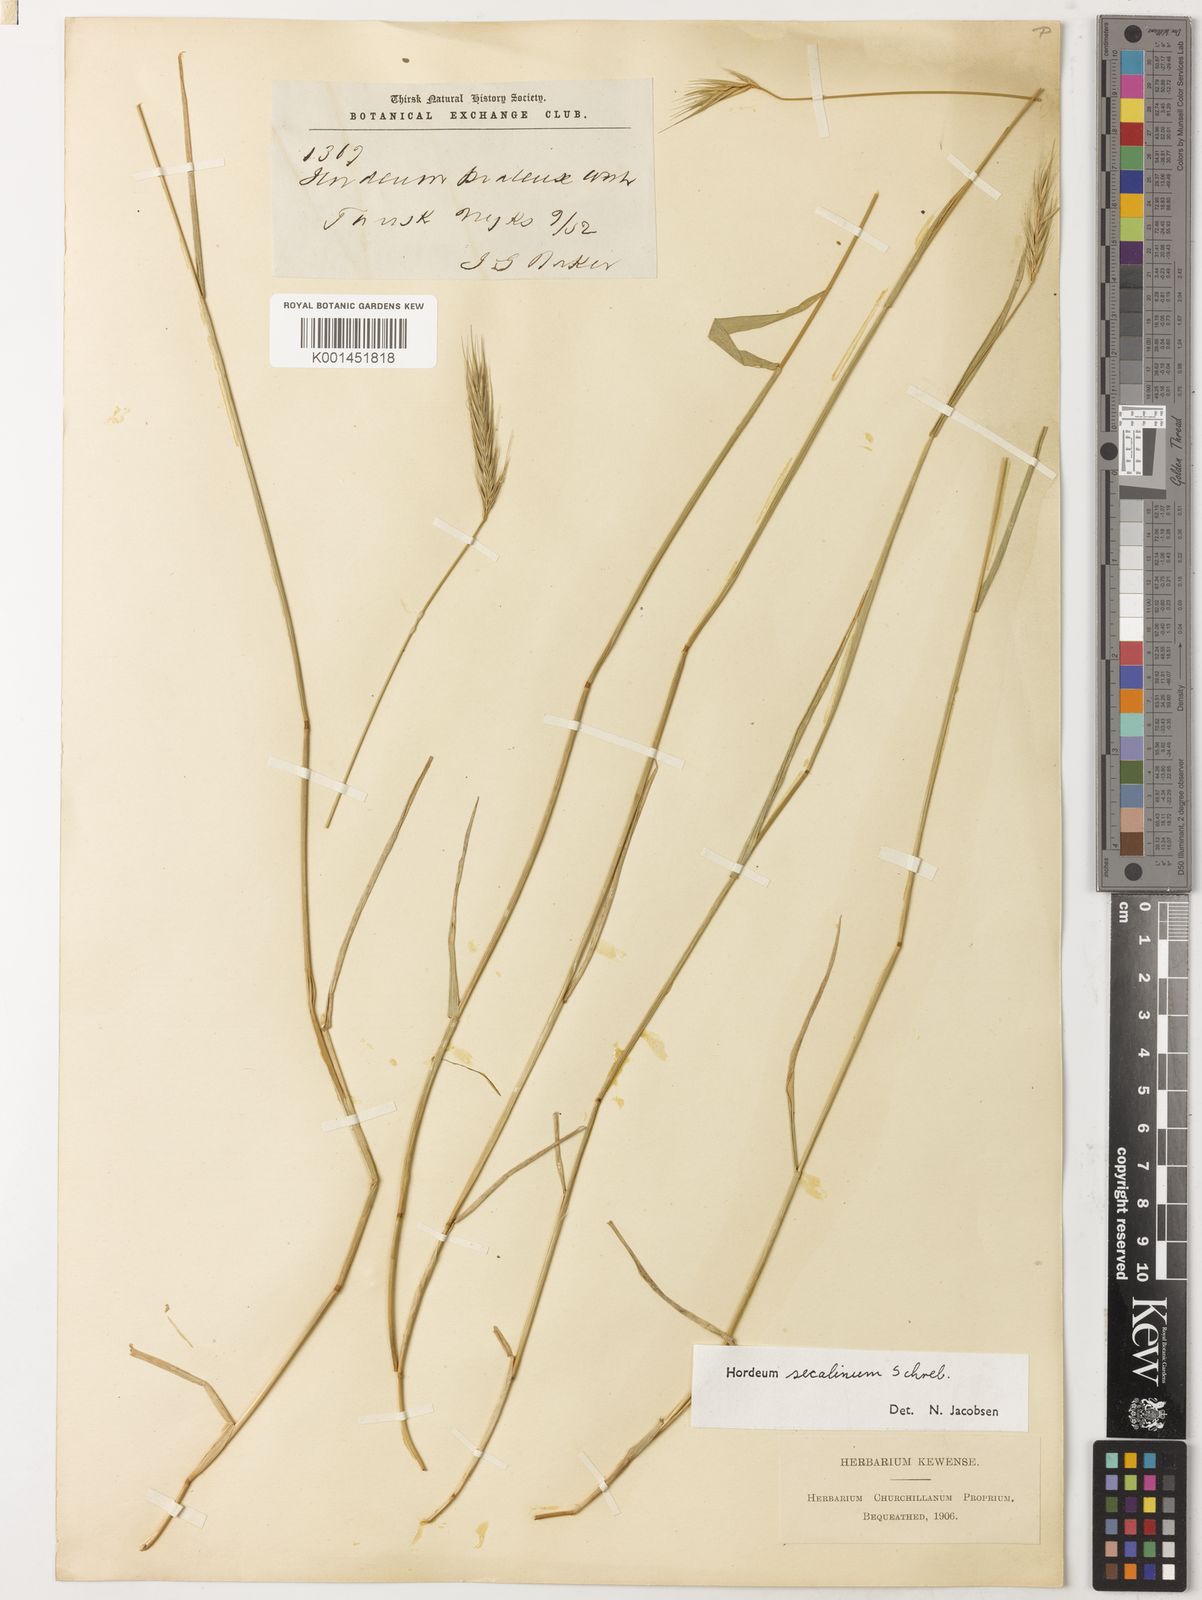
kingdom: Plantae
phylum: Tracheophyta
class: Liliopsida
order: Poales
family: Poaceae
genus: Hordeum
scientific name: Hordeum secalinum
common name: Meadow barley
